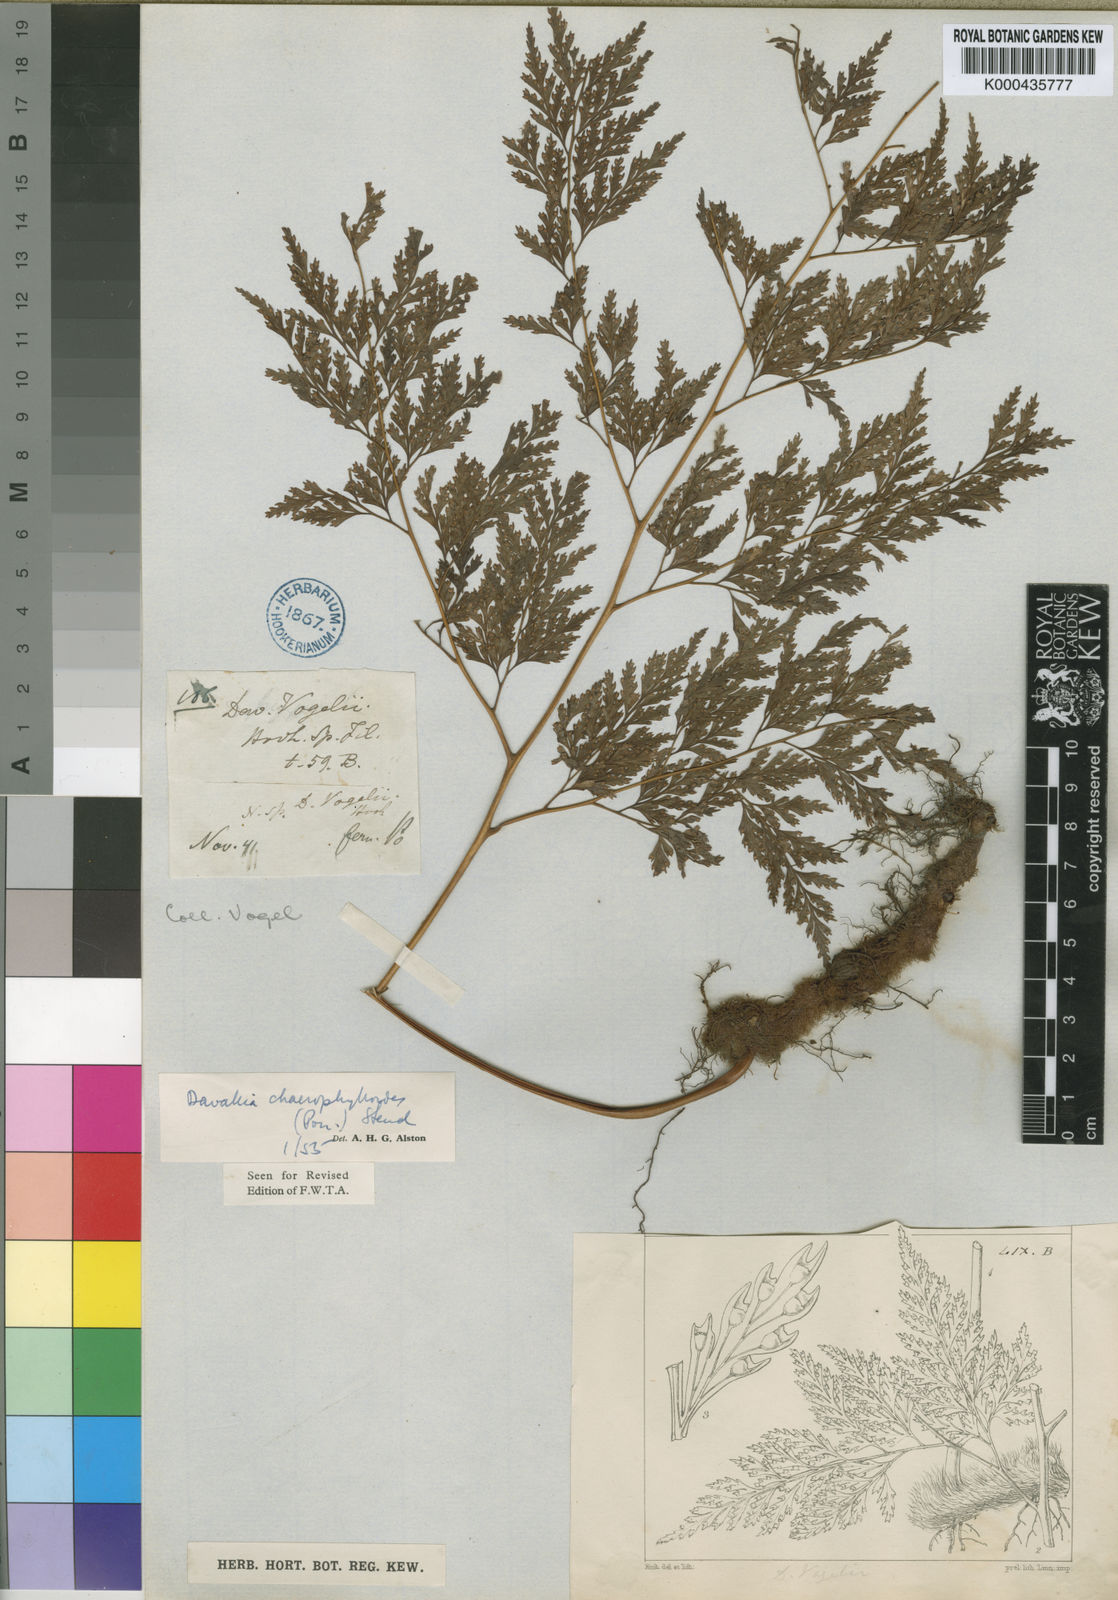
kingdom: Plantae
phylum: Tracheophyta
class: Polypodiopsida
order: Polypodiales
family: Davalliaceae
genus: Davallia
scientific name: Davallia chaerophylloides
